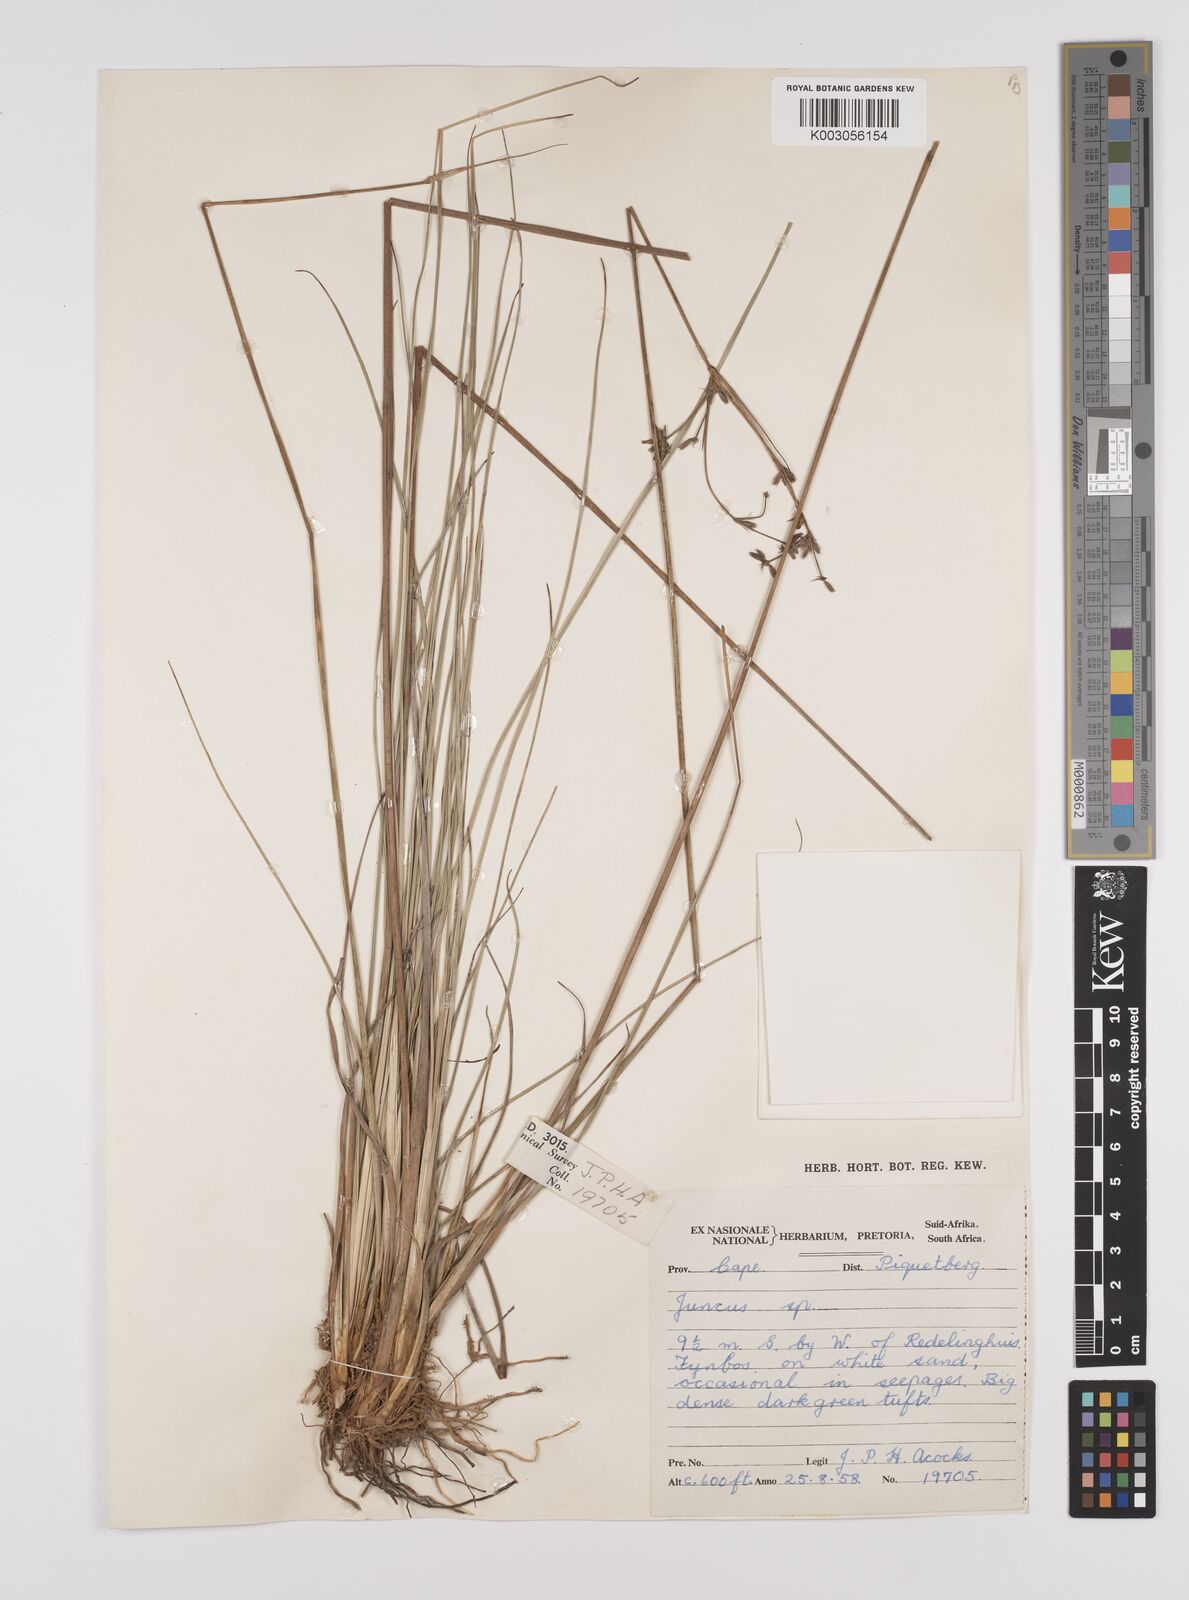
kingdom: Plantae
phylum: Tracheophyta
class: Liliopsida
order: Poales
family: Juncaceae
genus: Juncus
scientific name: Juncus
